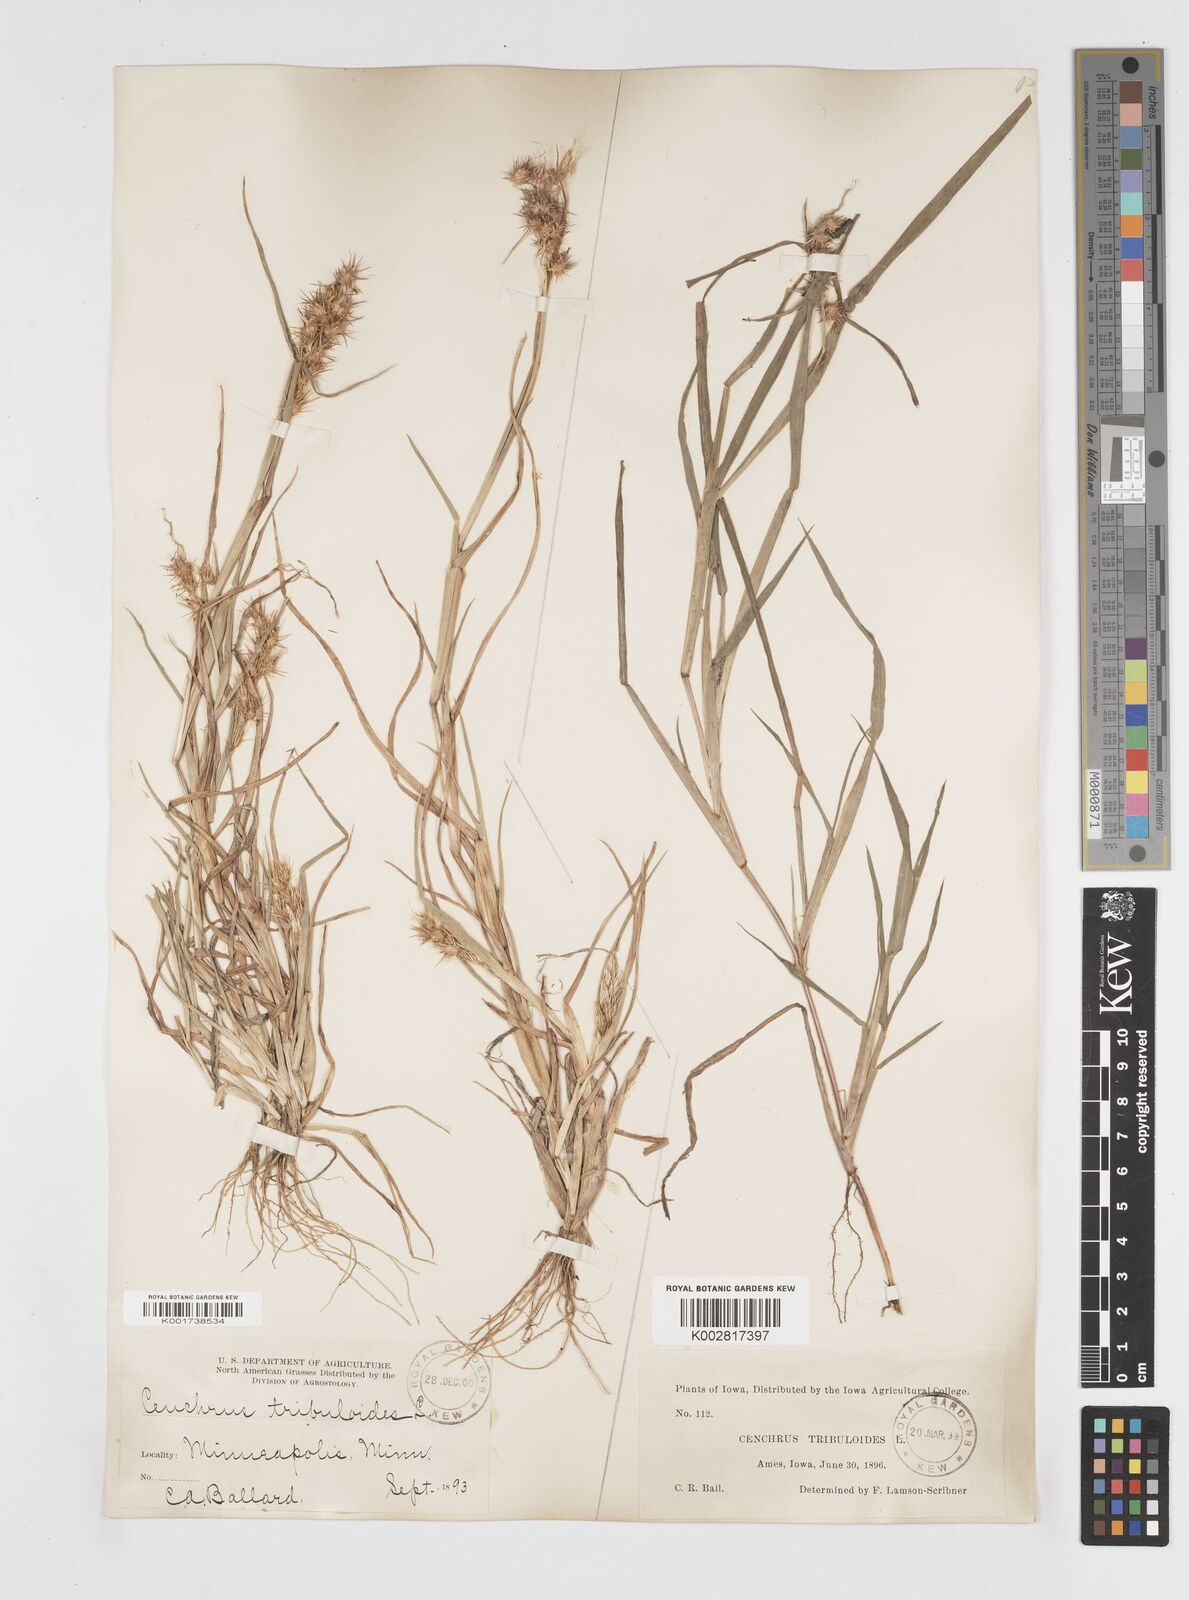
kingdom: Plantae
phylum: Tracheophyta
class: Liliopsida
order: Poales
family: Poaceae
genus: Cenchrus
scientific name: Cenchrus longispinus
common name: Mat sandbur
